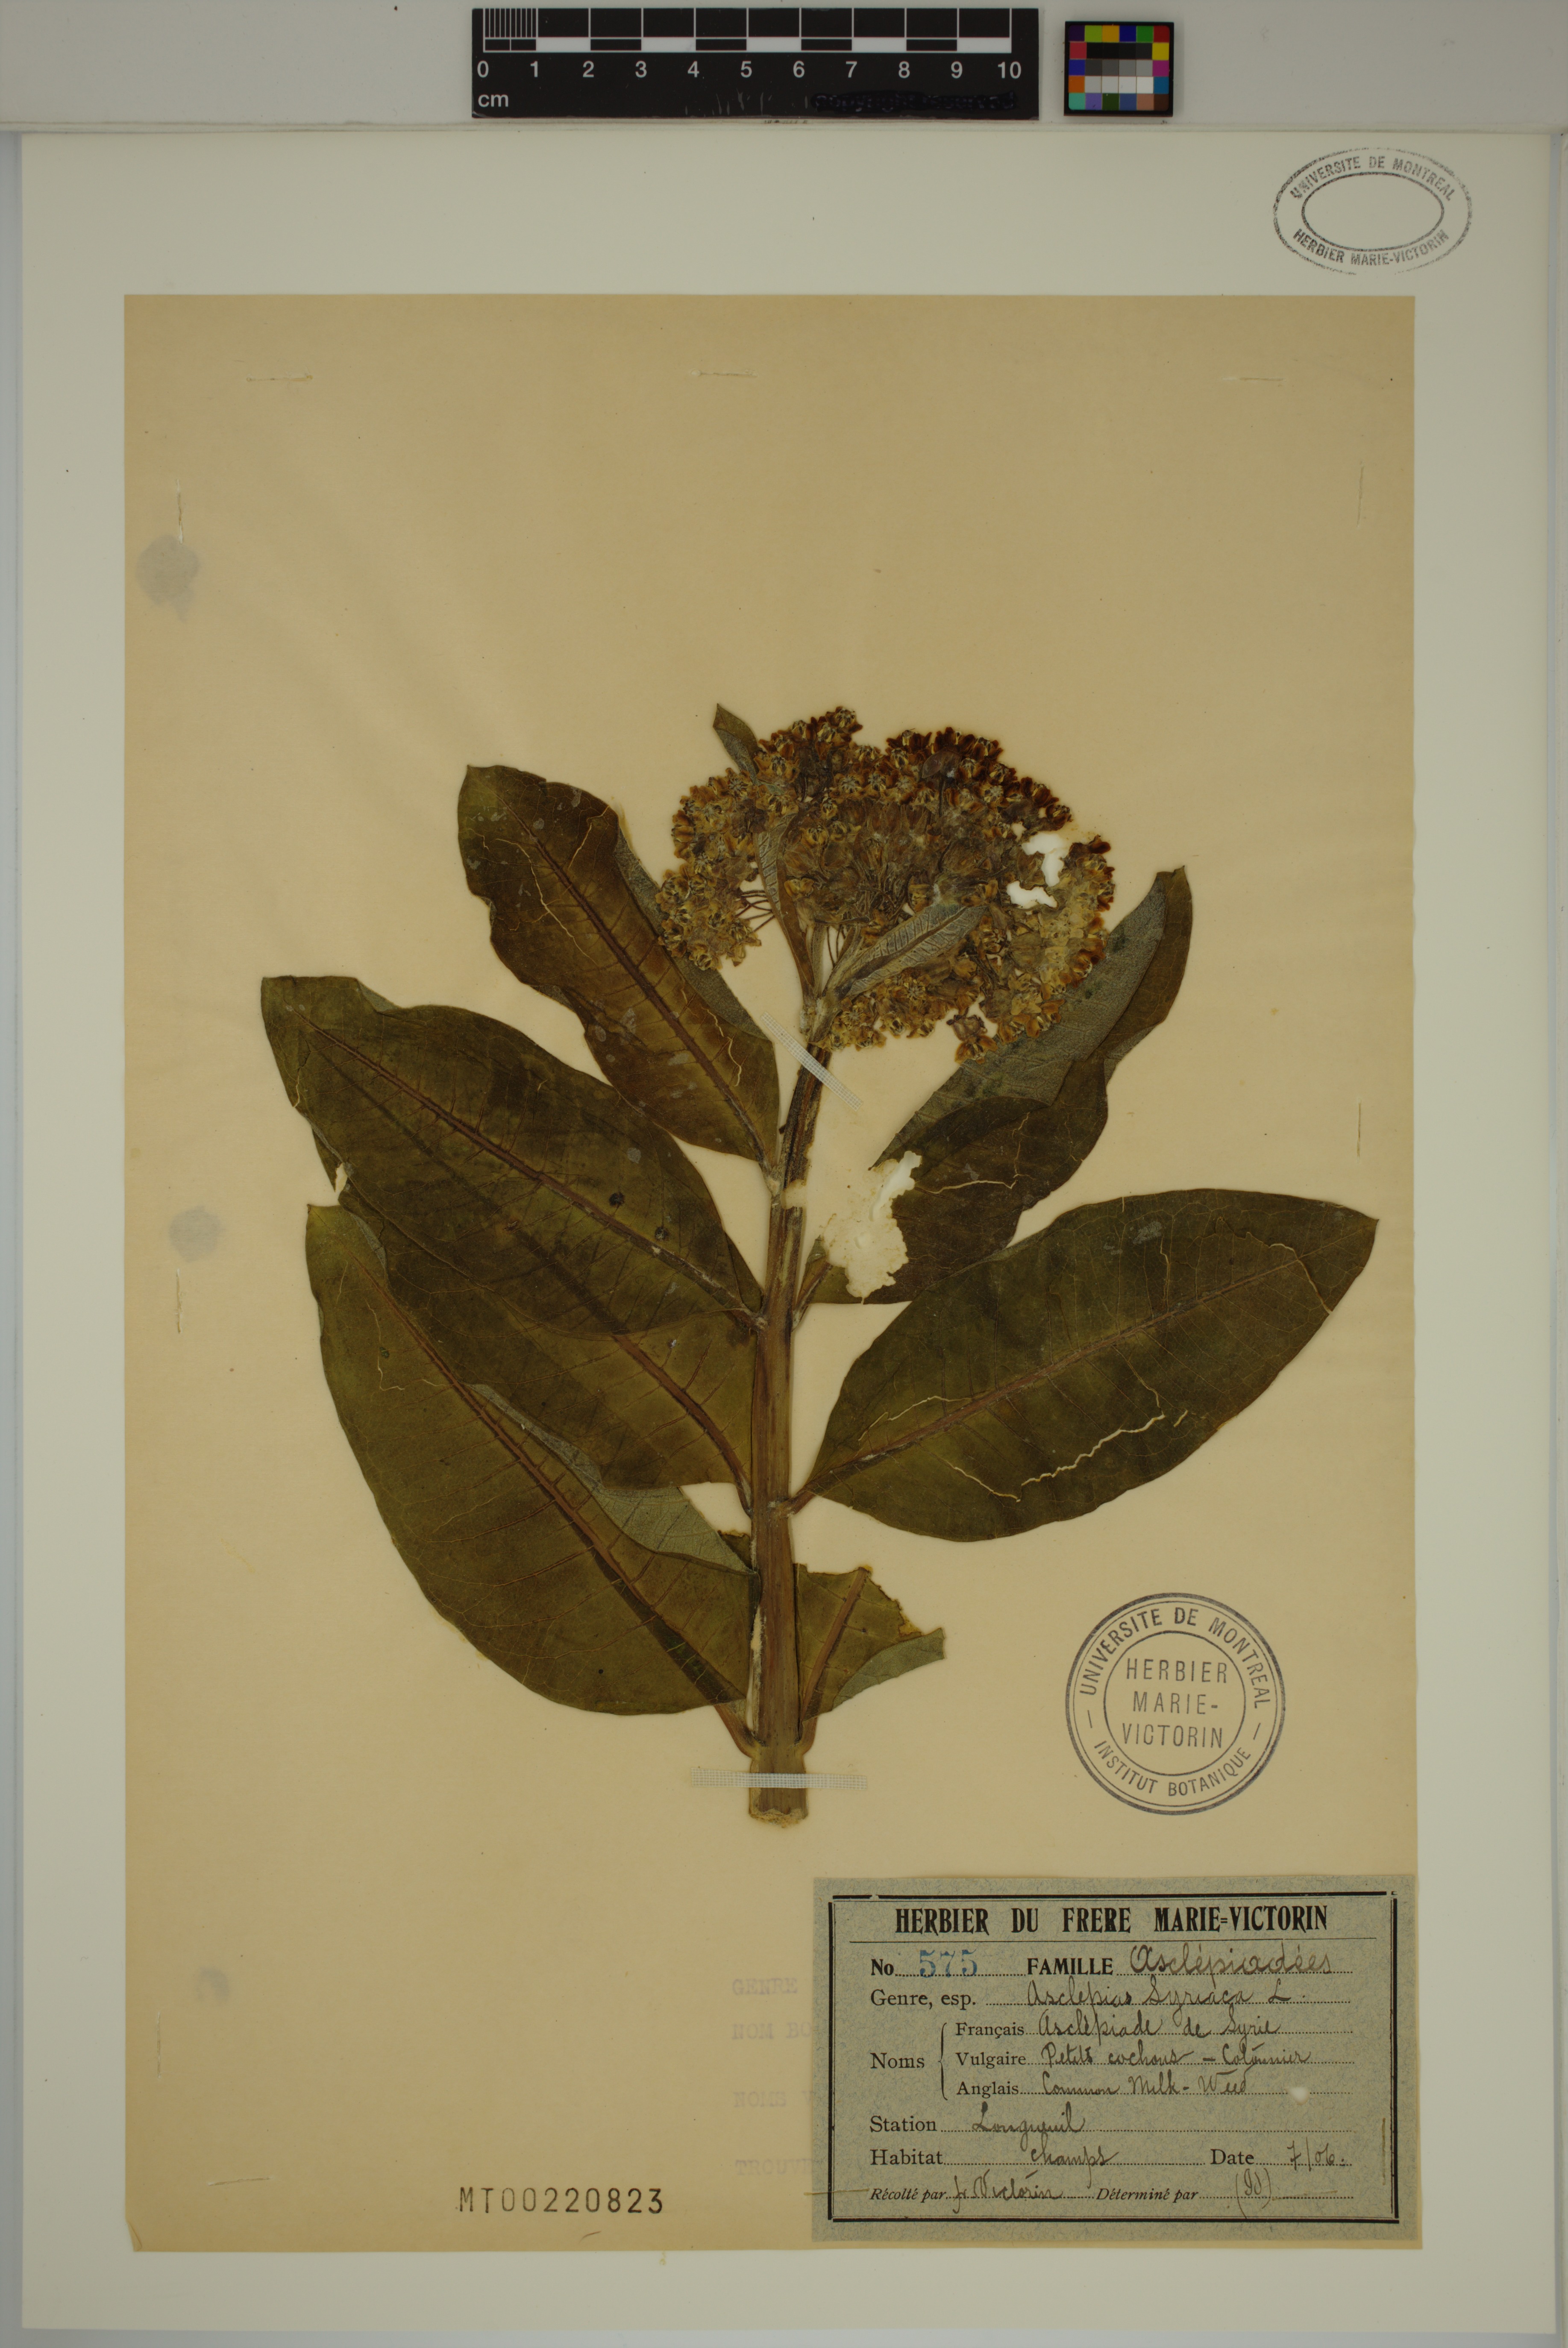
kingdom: Plantae
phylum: Tracheophyta
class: Magnoliopsida
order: Gentianales
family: Apocynaceae
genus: Asclepias
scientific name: Asclepias syriaca
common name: Common milkweed
